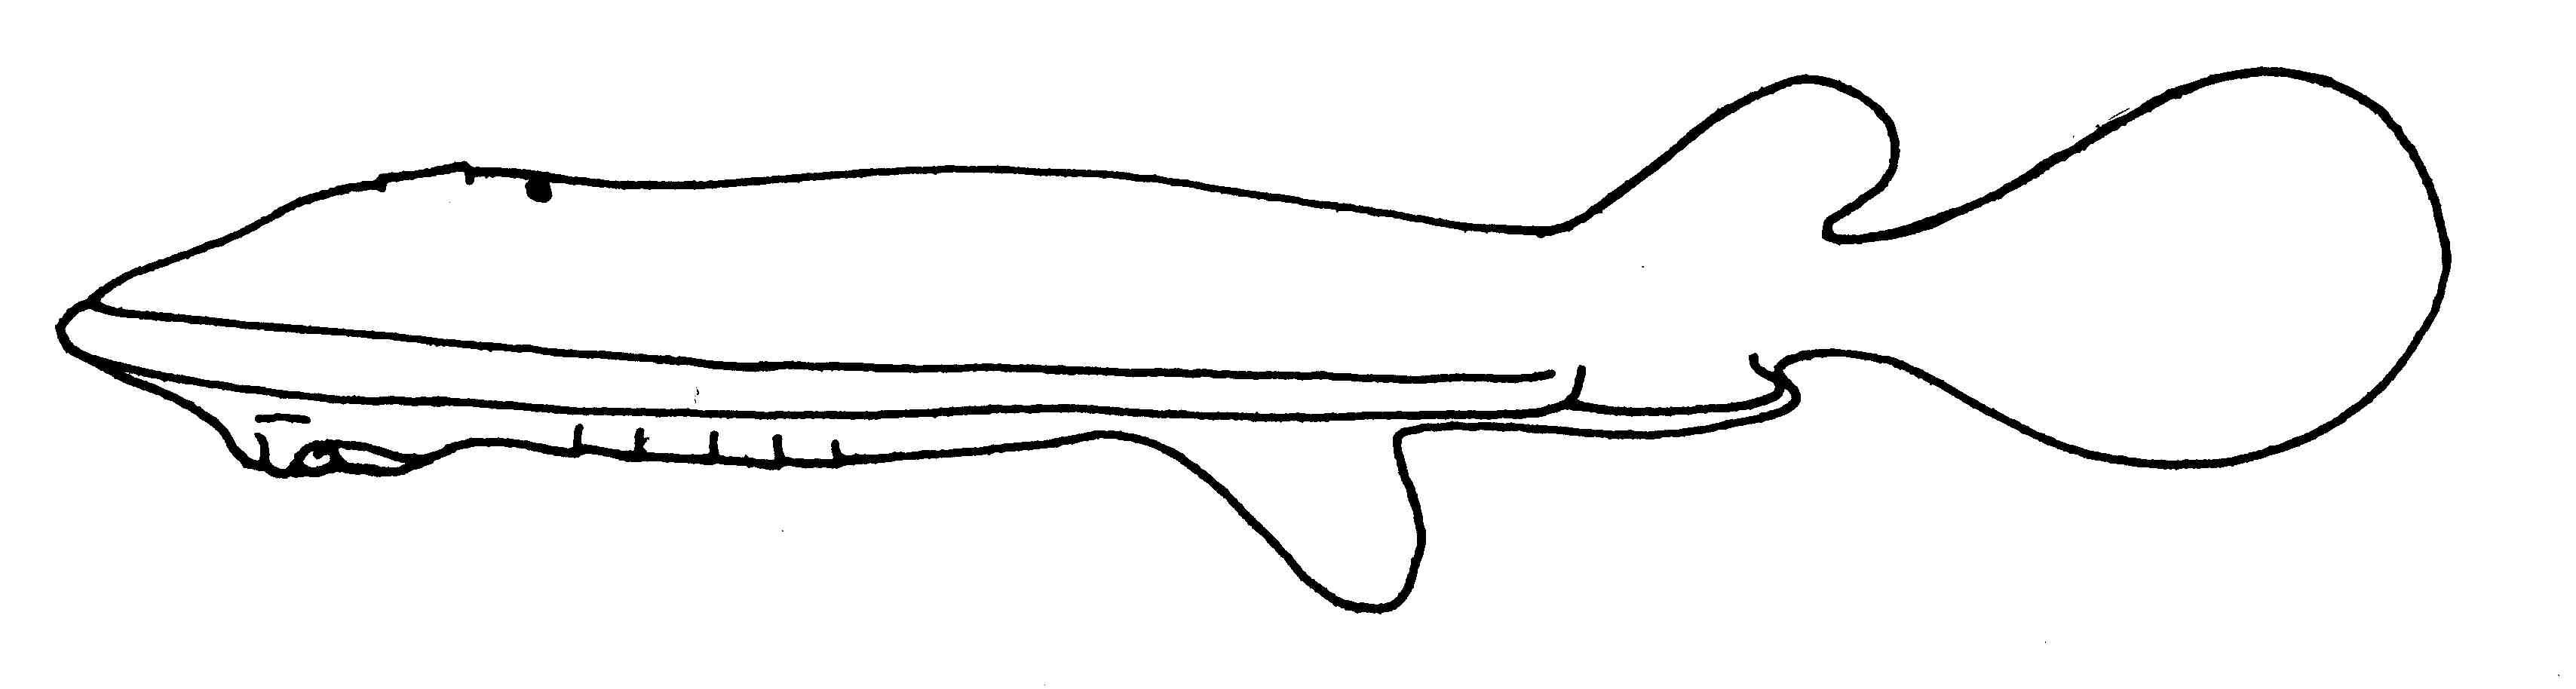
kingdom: Animalia
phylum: Chordata
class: Elasmobranchii
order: Torpediniformes
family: Narkidae
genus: Typhlonarke
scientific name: Typhlonarke aysoni
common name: Blind electric ray
